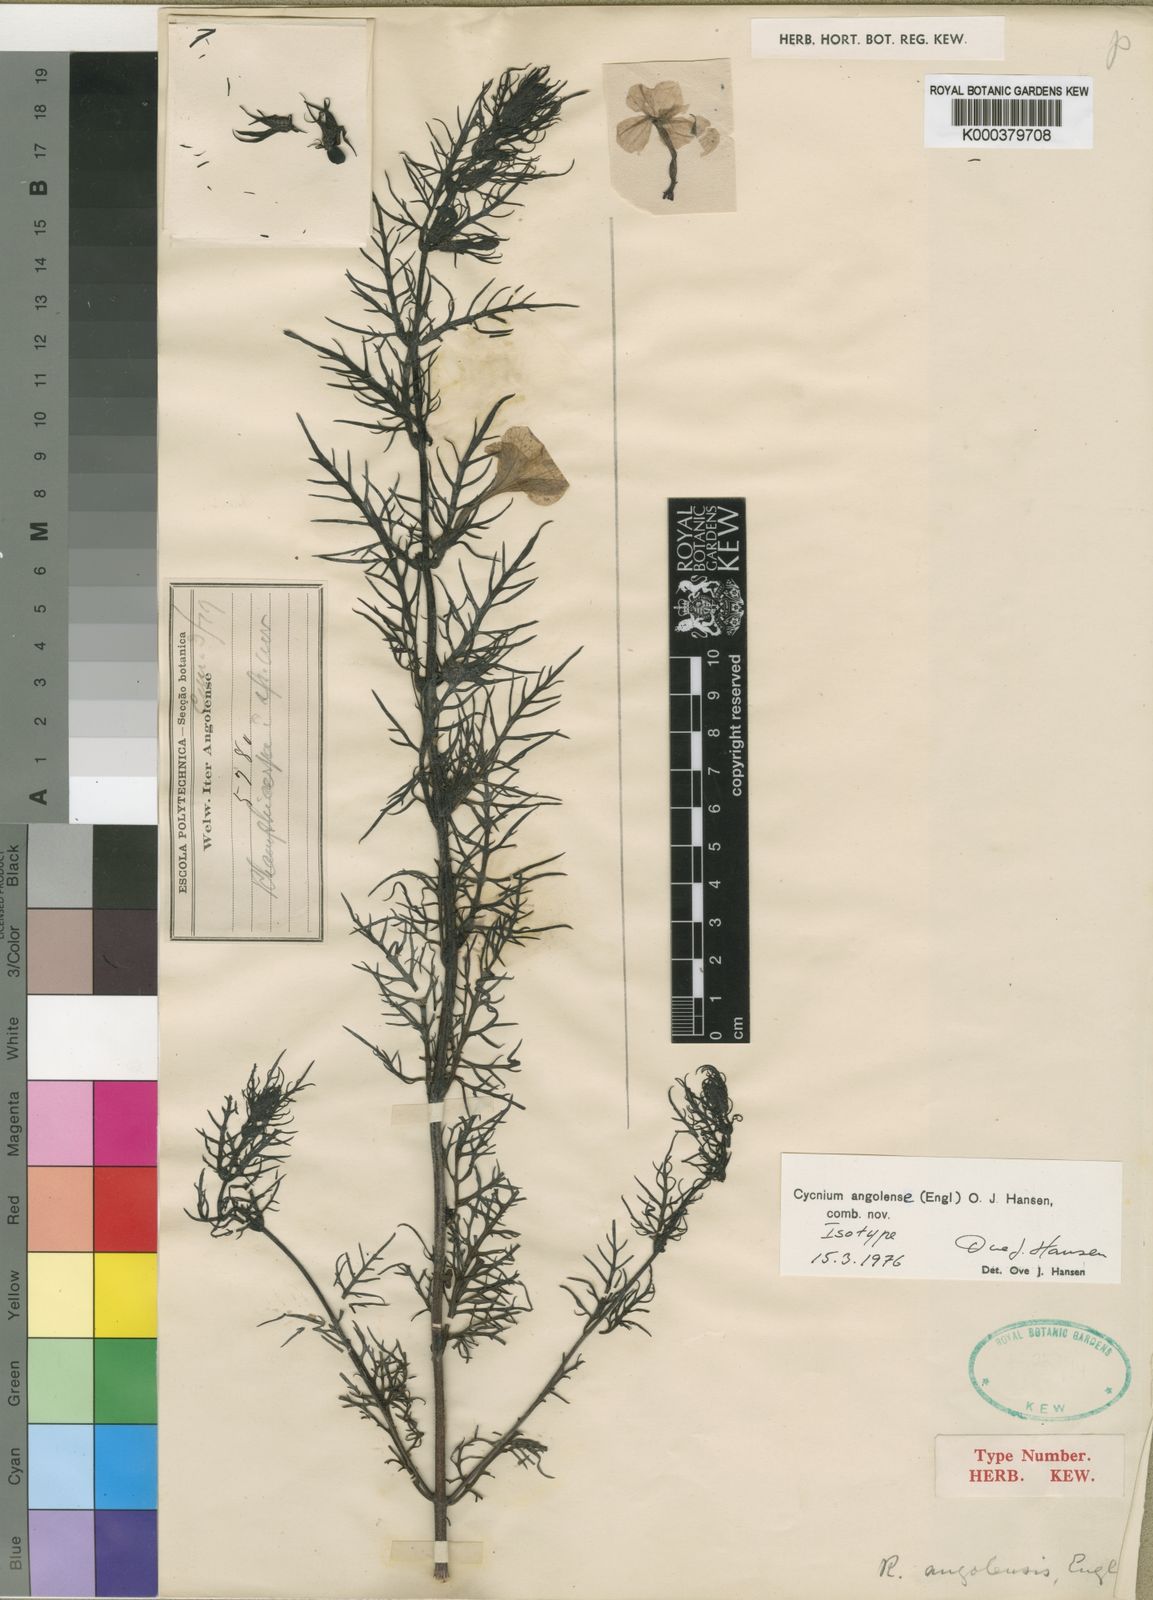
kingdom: Plantae
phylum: Tracheophyta
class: Magnoliopsida
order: Lamiales
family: Orobanchaceae
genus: Cycnium
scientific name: Cycnium angolense
